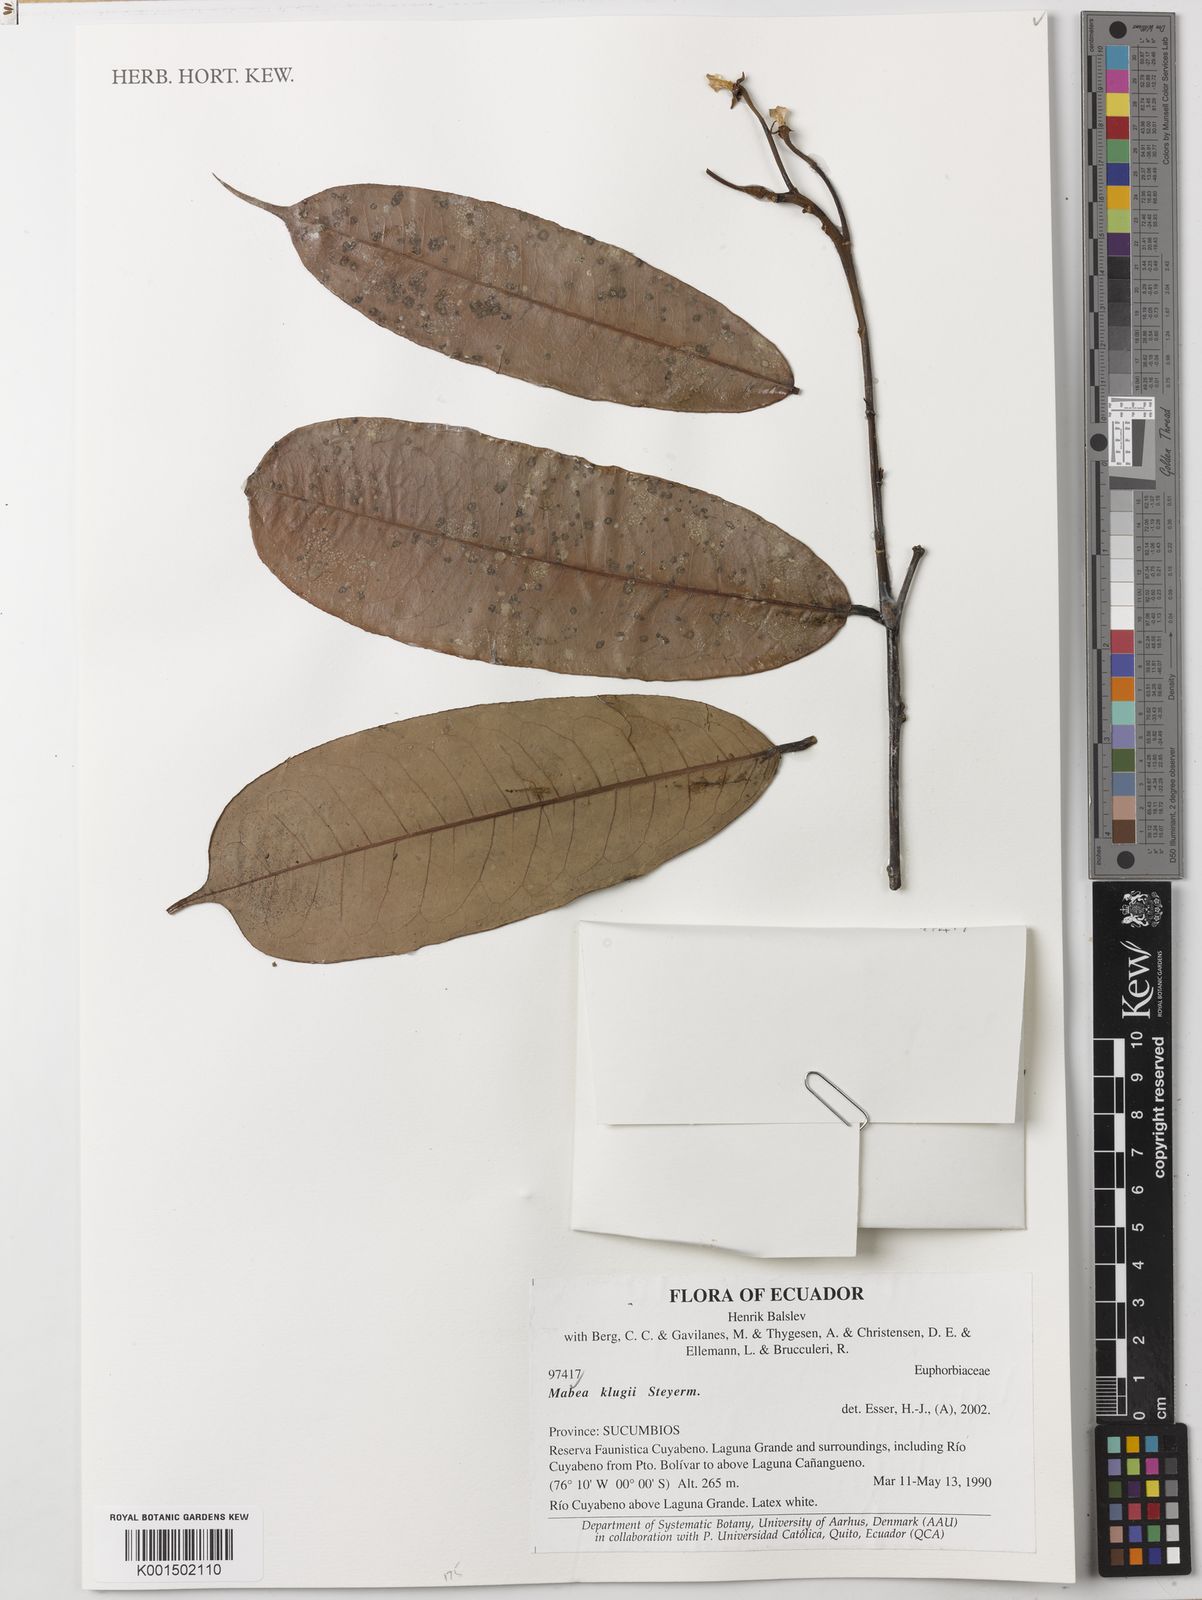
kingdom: Plantae
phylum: Tracheophyta
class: Magnoliopsida
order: Malpighiales
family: Euphorbiaceae
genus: Mabea
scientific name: Mabea klugii
